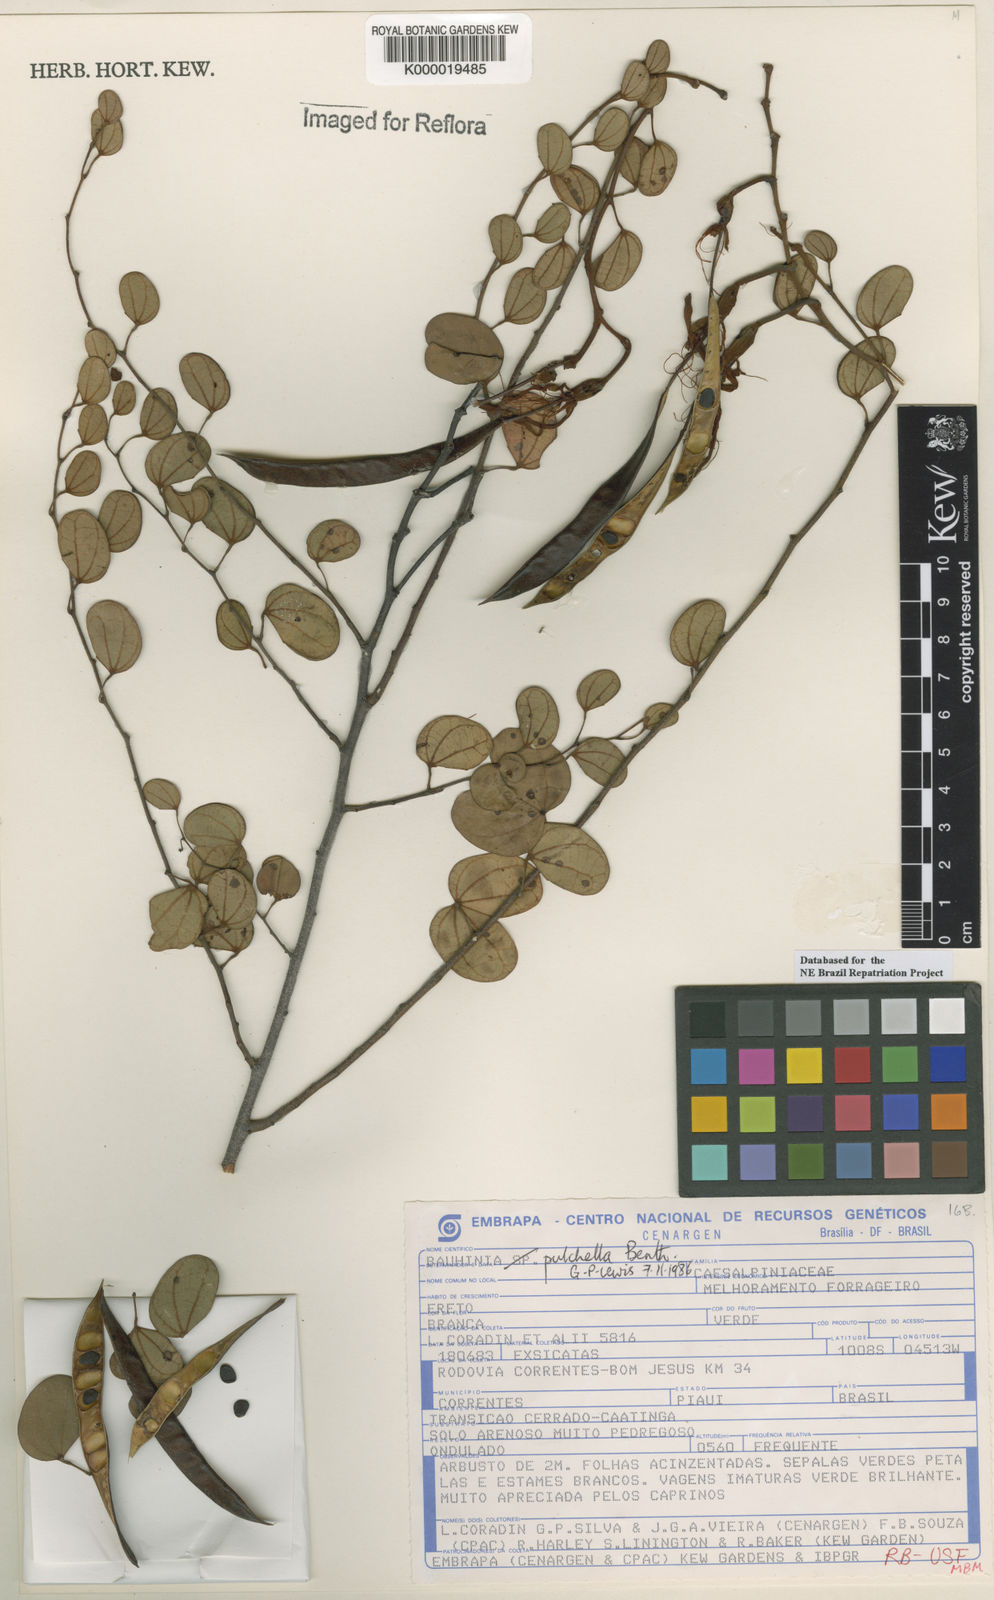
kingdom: Plantae
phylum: Tracheophyta
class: Magnoliopsida
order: Fabales
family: Fabaceae
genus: Bauhinia
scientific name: Bauhinia pulchella
